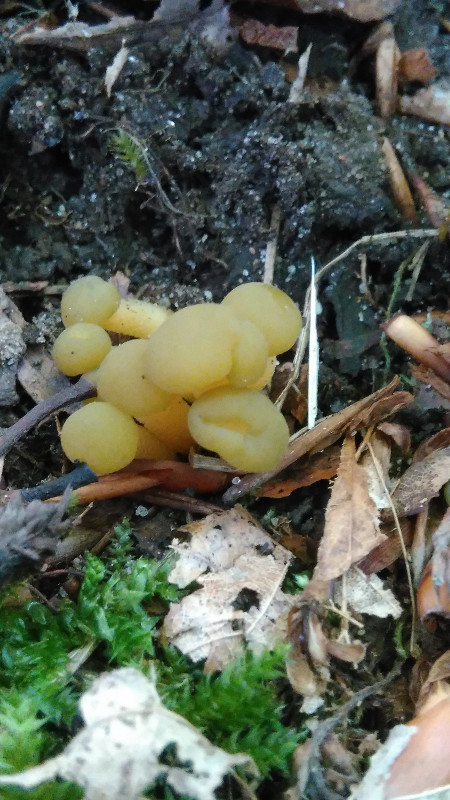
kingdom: Fungi
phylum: Ascomycota
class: Leotiomycetes
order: Leotiales
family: Leotiaceae
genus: Leotia
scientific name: Leotia lubrica
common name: ravsvamp
